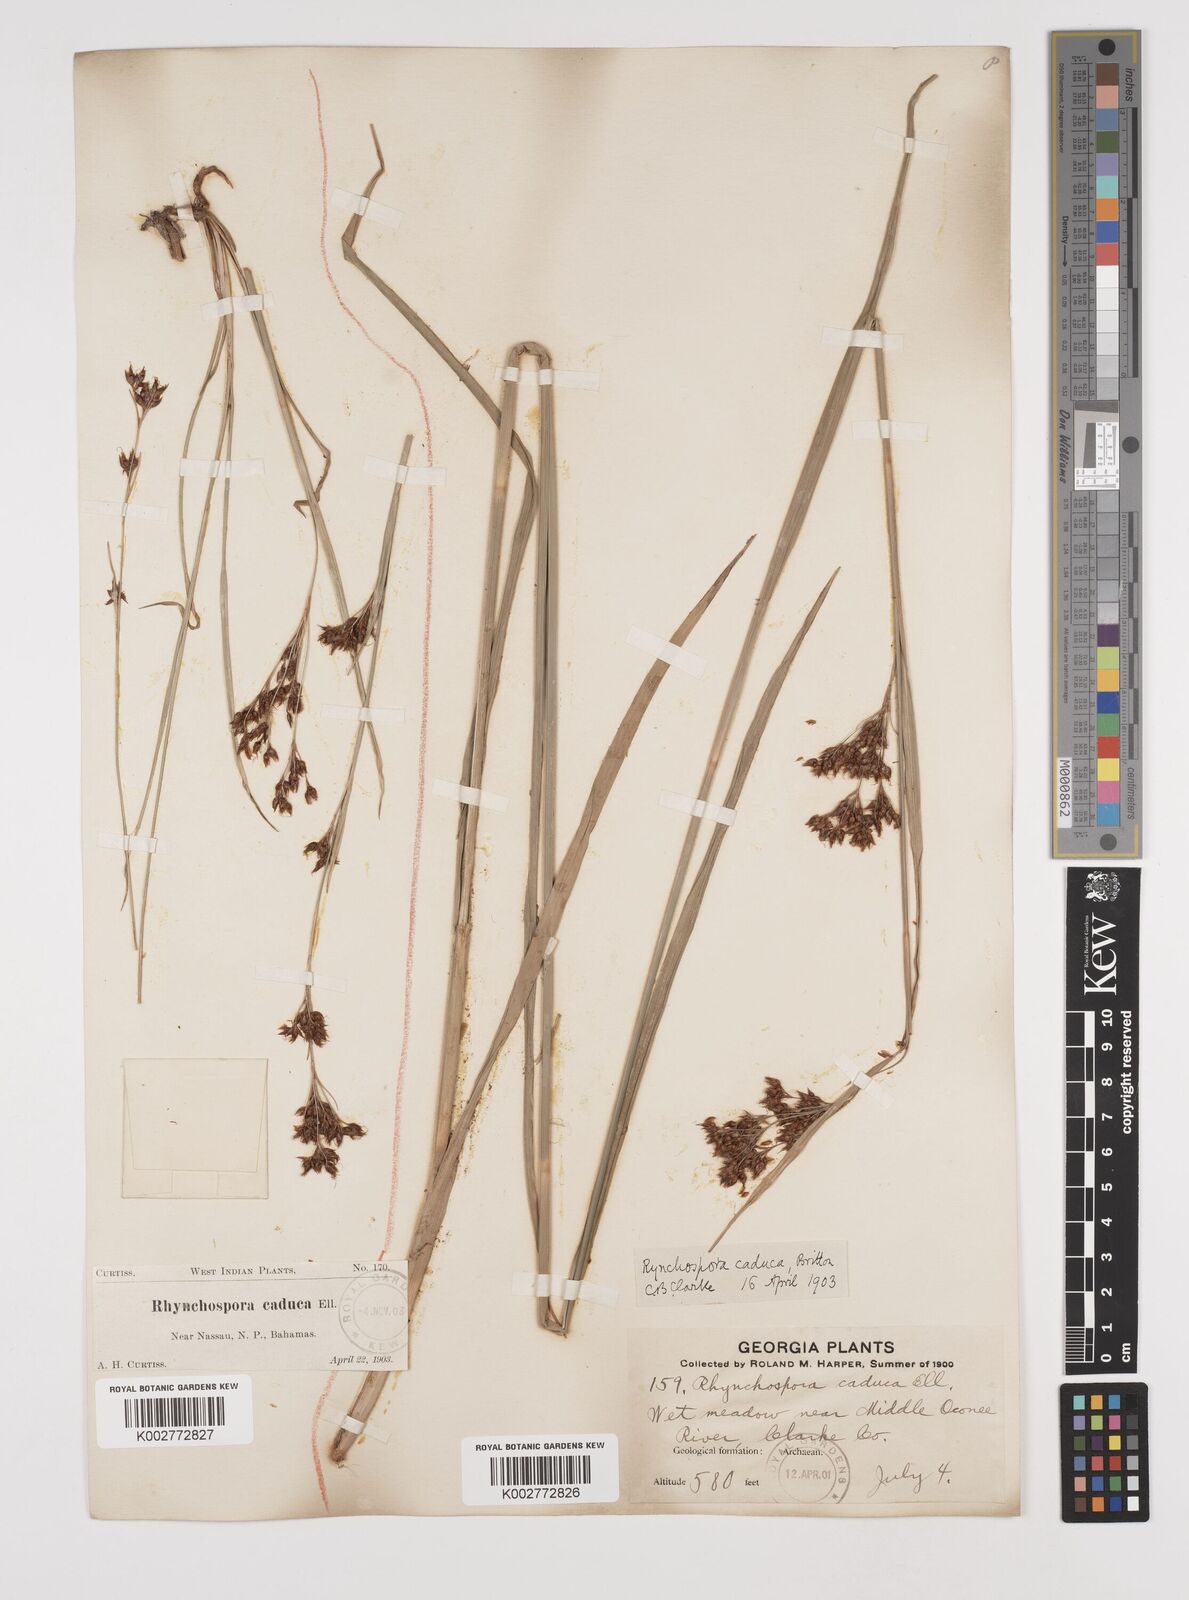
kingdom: Plantae
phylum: Tracheophyta
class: Liliopsida
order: Poales
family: Cyperaceae
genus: Rhynchospora
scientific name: Rhynchospora caduca
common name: Anglestem beaksedge
